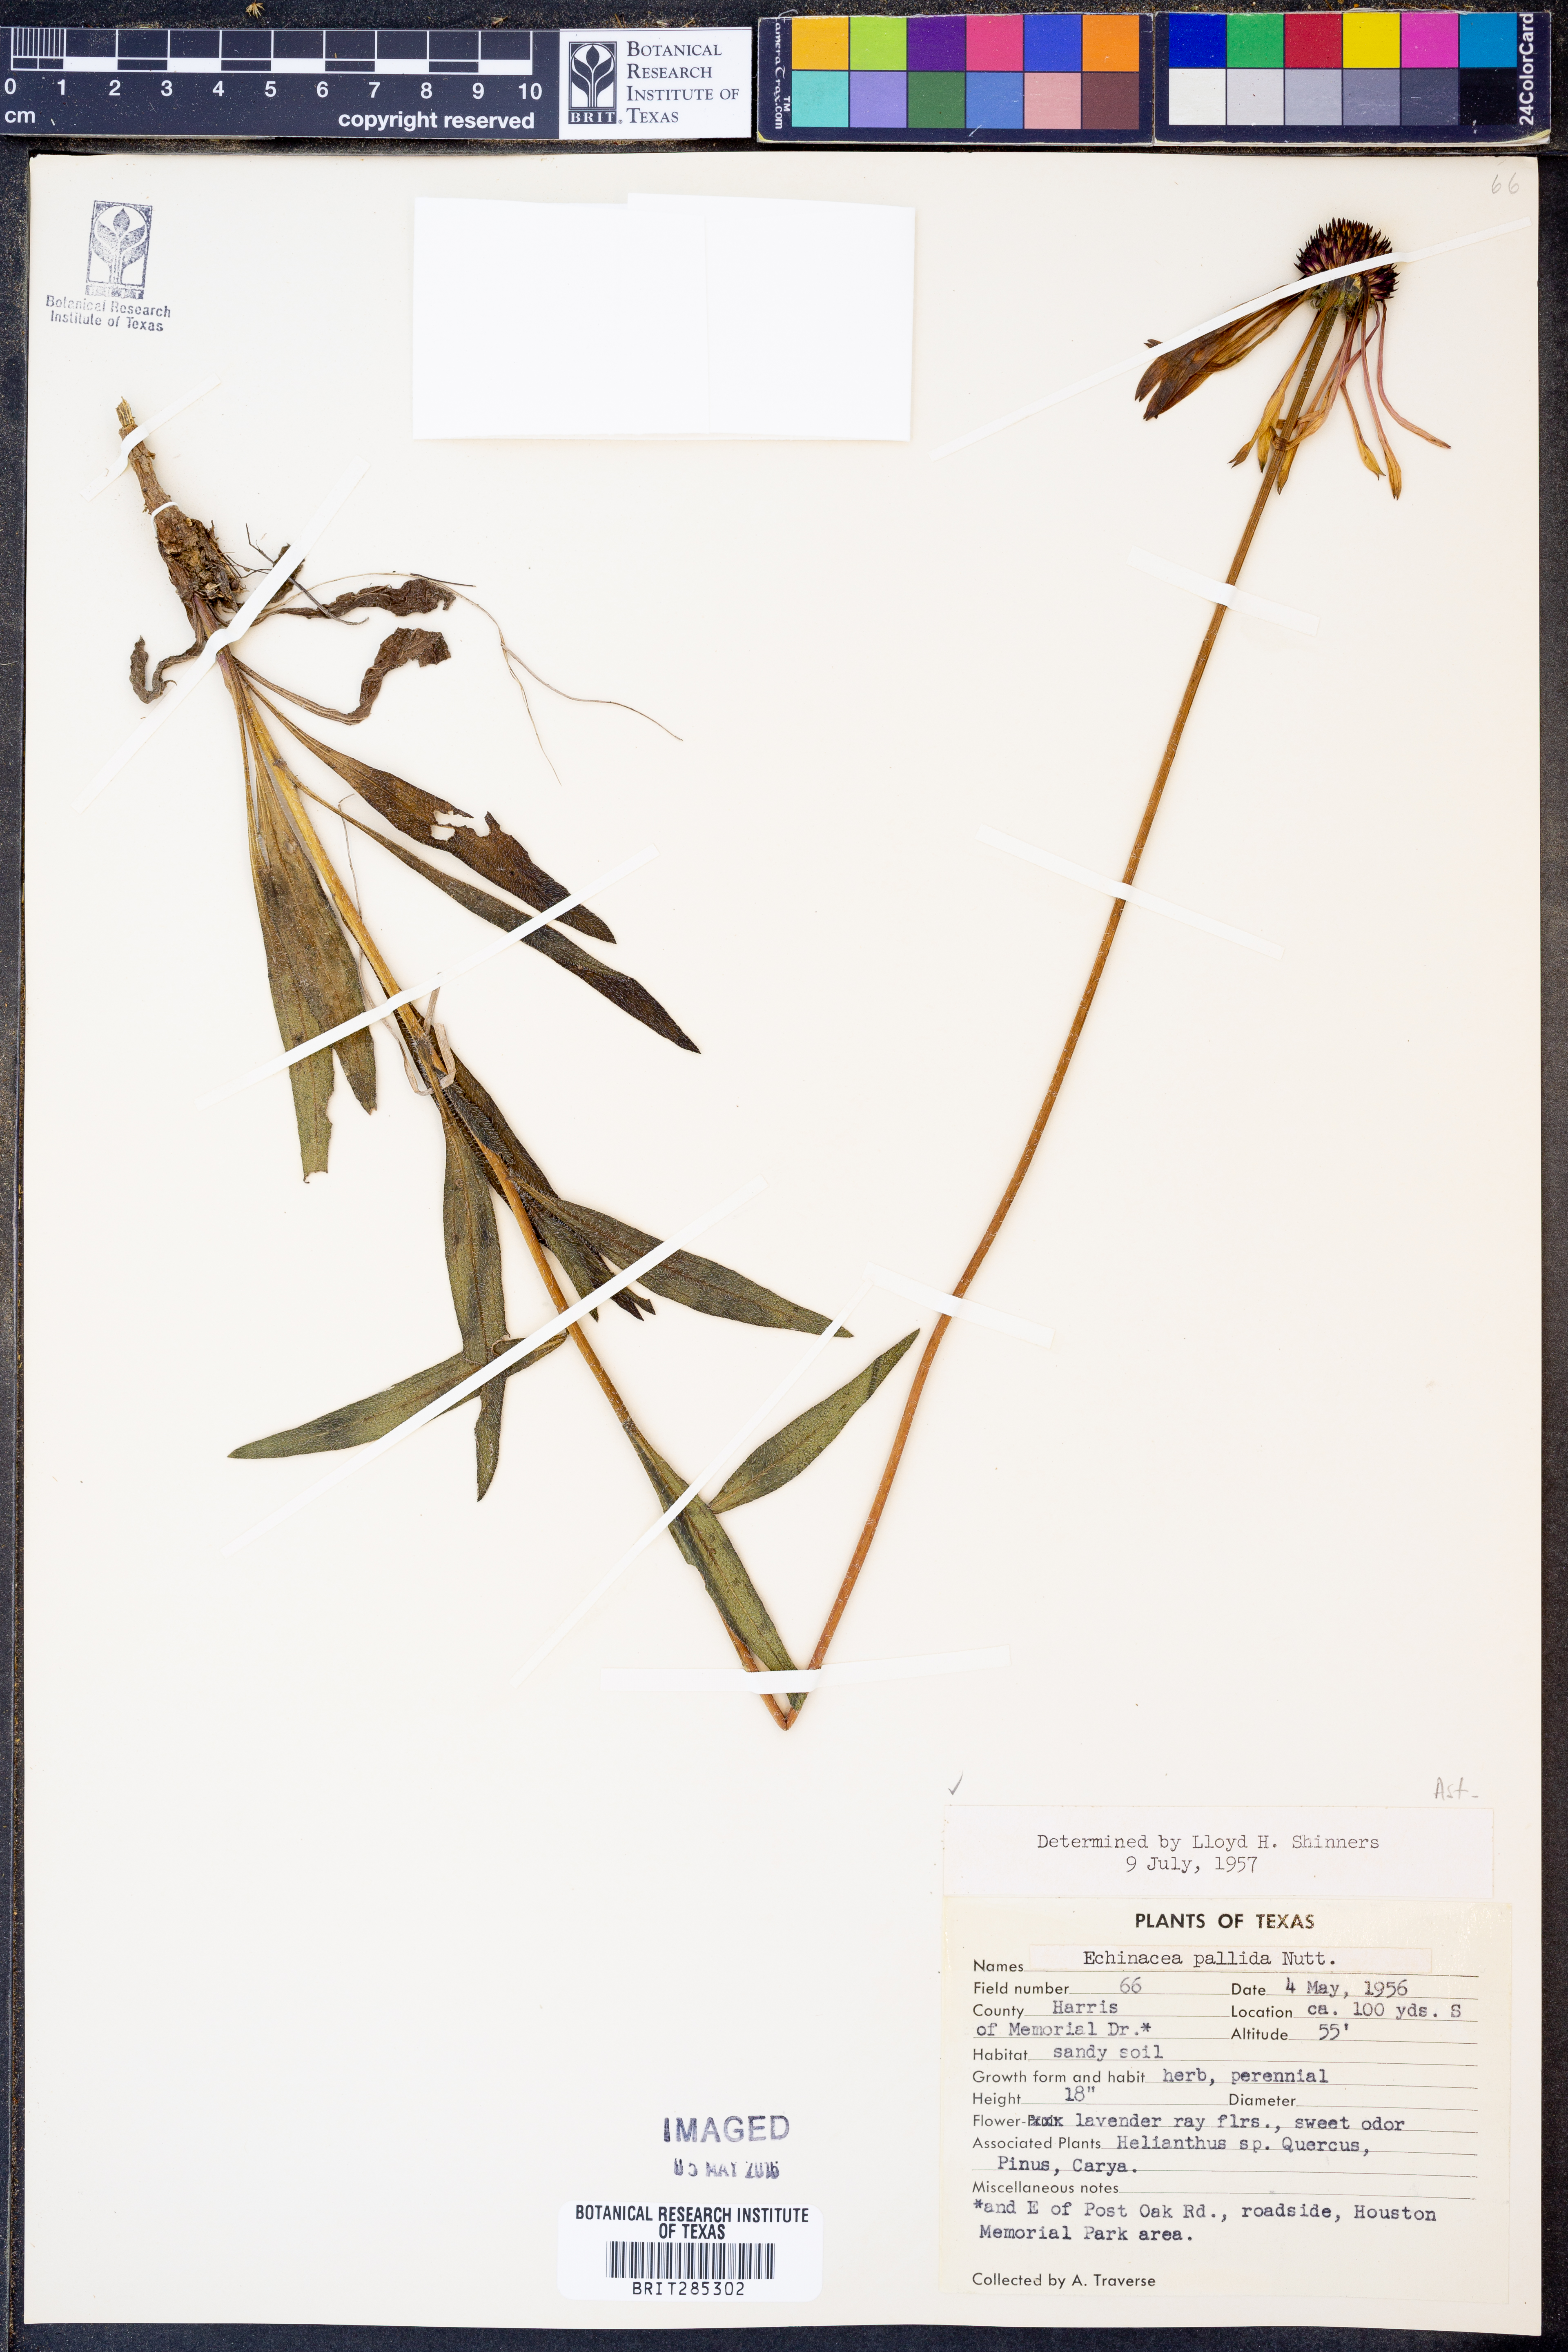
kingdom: Plantae
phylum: Tracheophyta
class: Magnoliopsida
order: Asterales
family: Asteraceae
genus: Echinacea
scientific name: Echinacea pallida
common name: Pale echinacea
